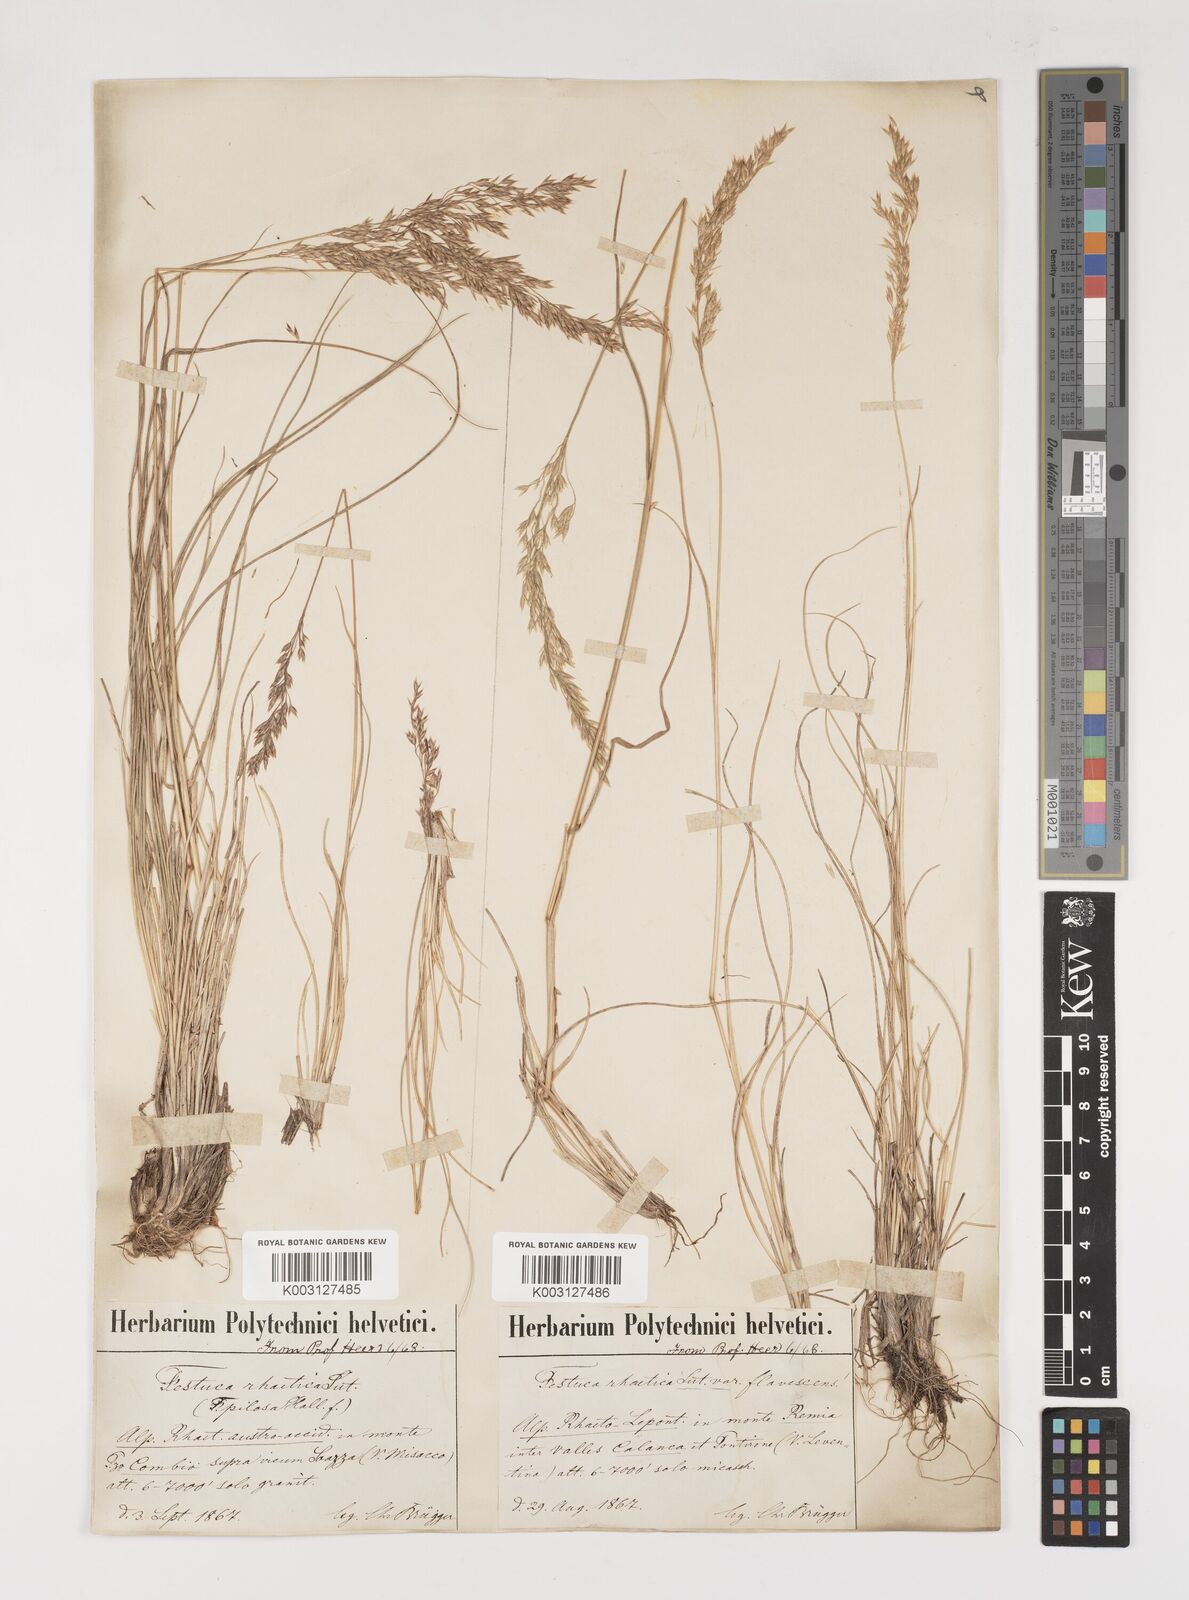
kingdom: Plantae
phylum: Tracheophyta
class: Liliopsida
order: Poales
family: Poaceae
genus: Bellardiochloa
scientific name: Bellardiochloa variegata
